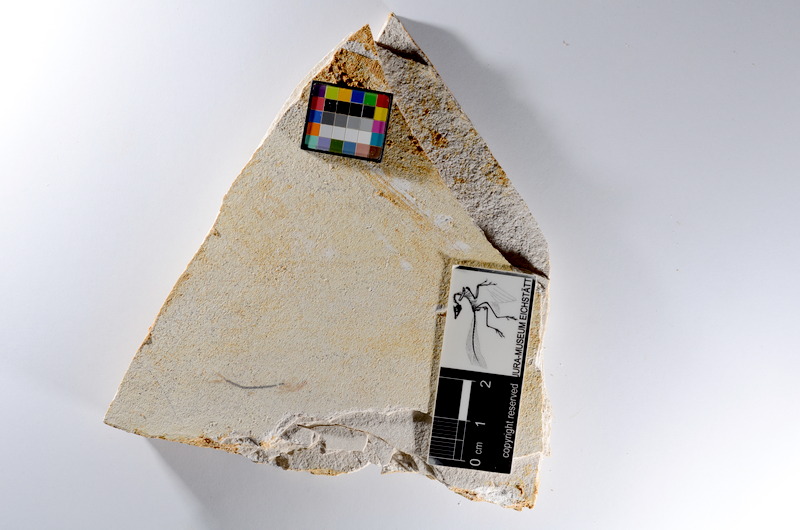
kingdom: Animalia
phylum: Chordata
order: Salmoniformes
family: Orthogonikleithridae
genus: Orthogonikleithrus
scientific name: Orthogonikleithrus hoelli
